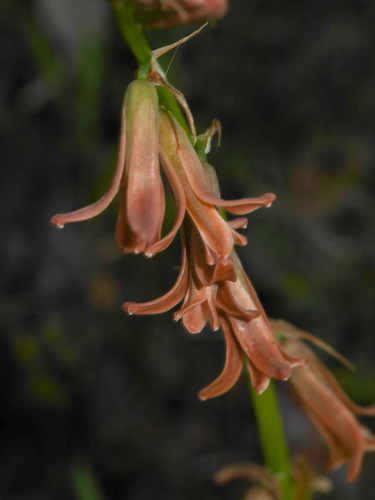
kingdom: Plantae
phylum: Tracheophyta
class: Liliopsida
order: Asparagales
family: Asparagaceae
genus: Dipcadi
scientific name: Dipcadi serotinum
